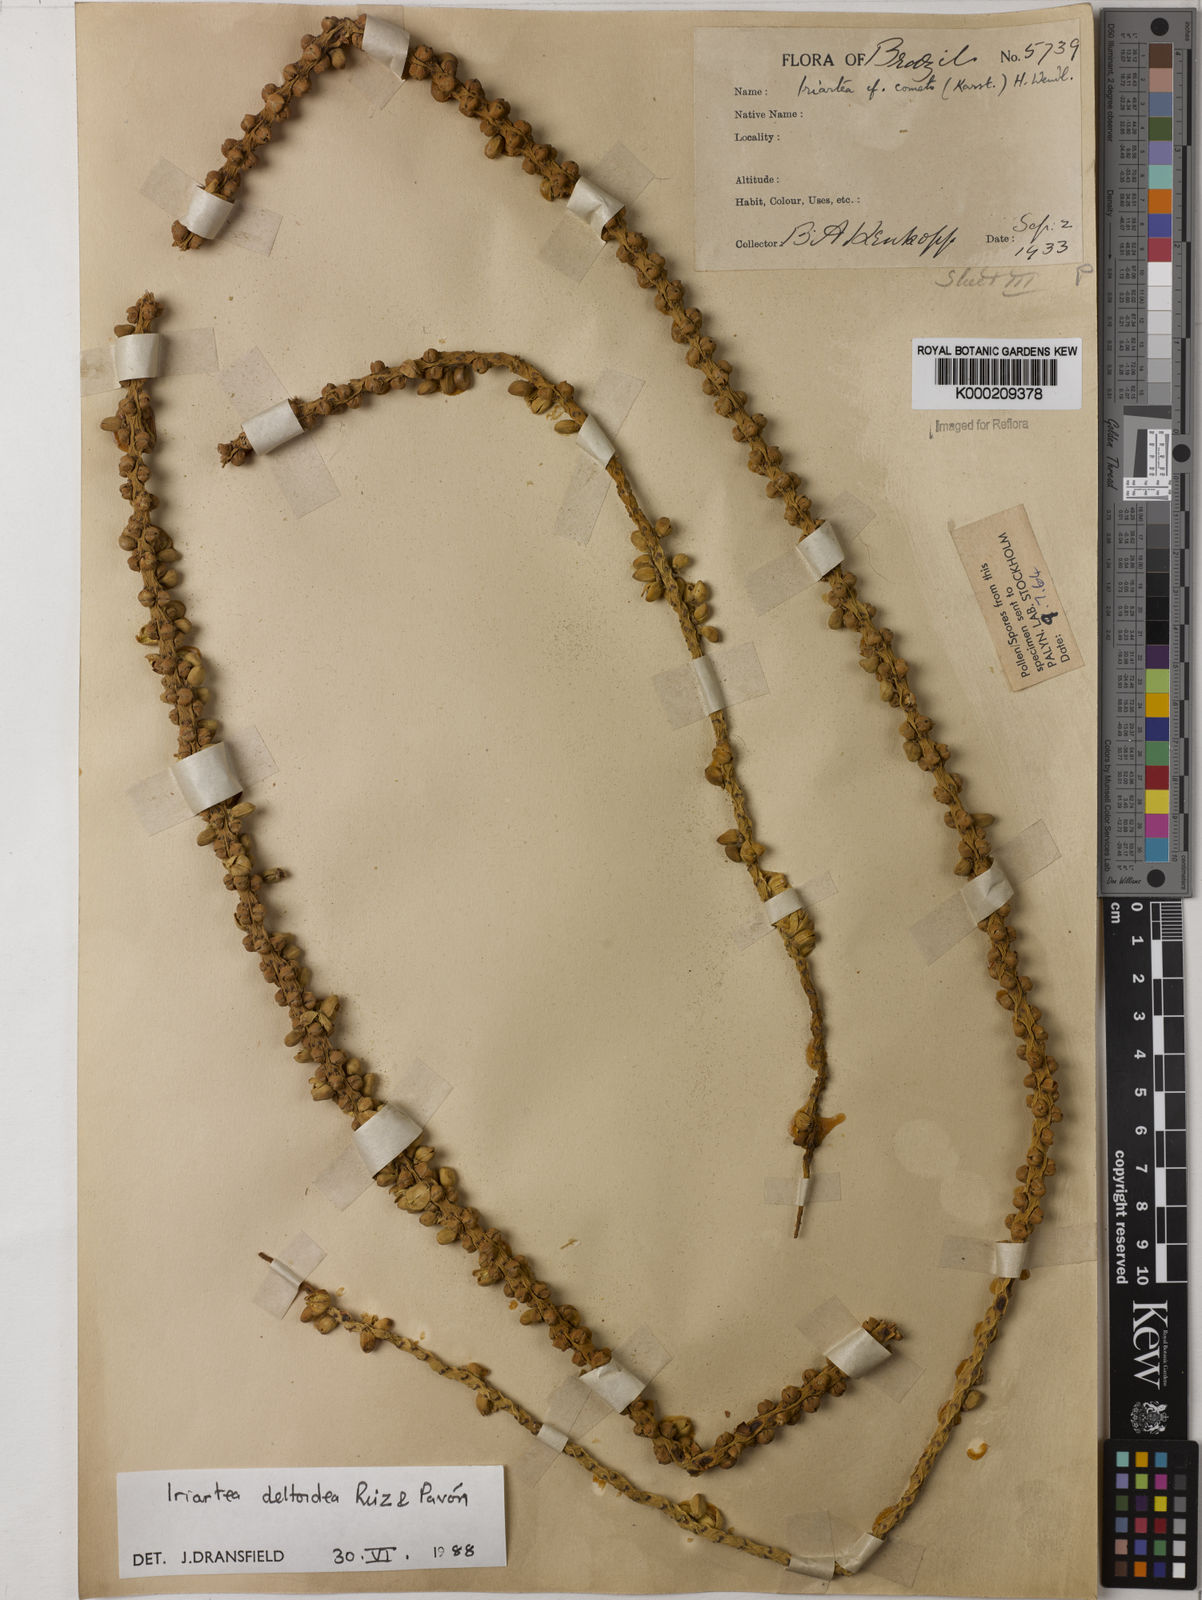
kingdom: Plantae
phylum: Tracheophyta
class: Liliopsida
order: Arecales
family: Arecaceae
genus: Iriartea
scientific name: Iriartea deltoidea
